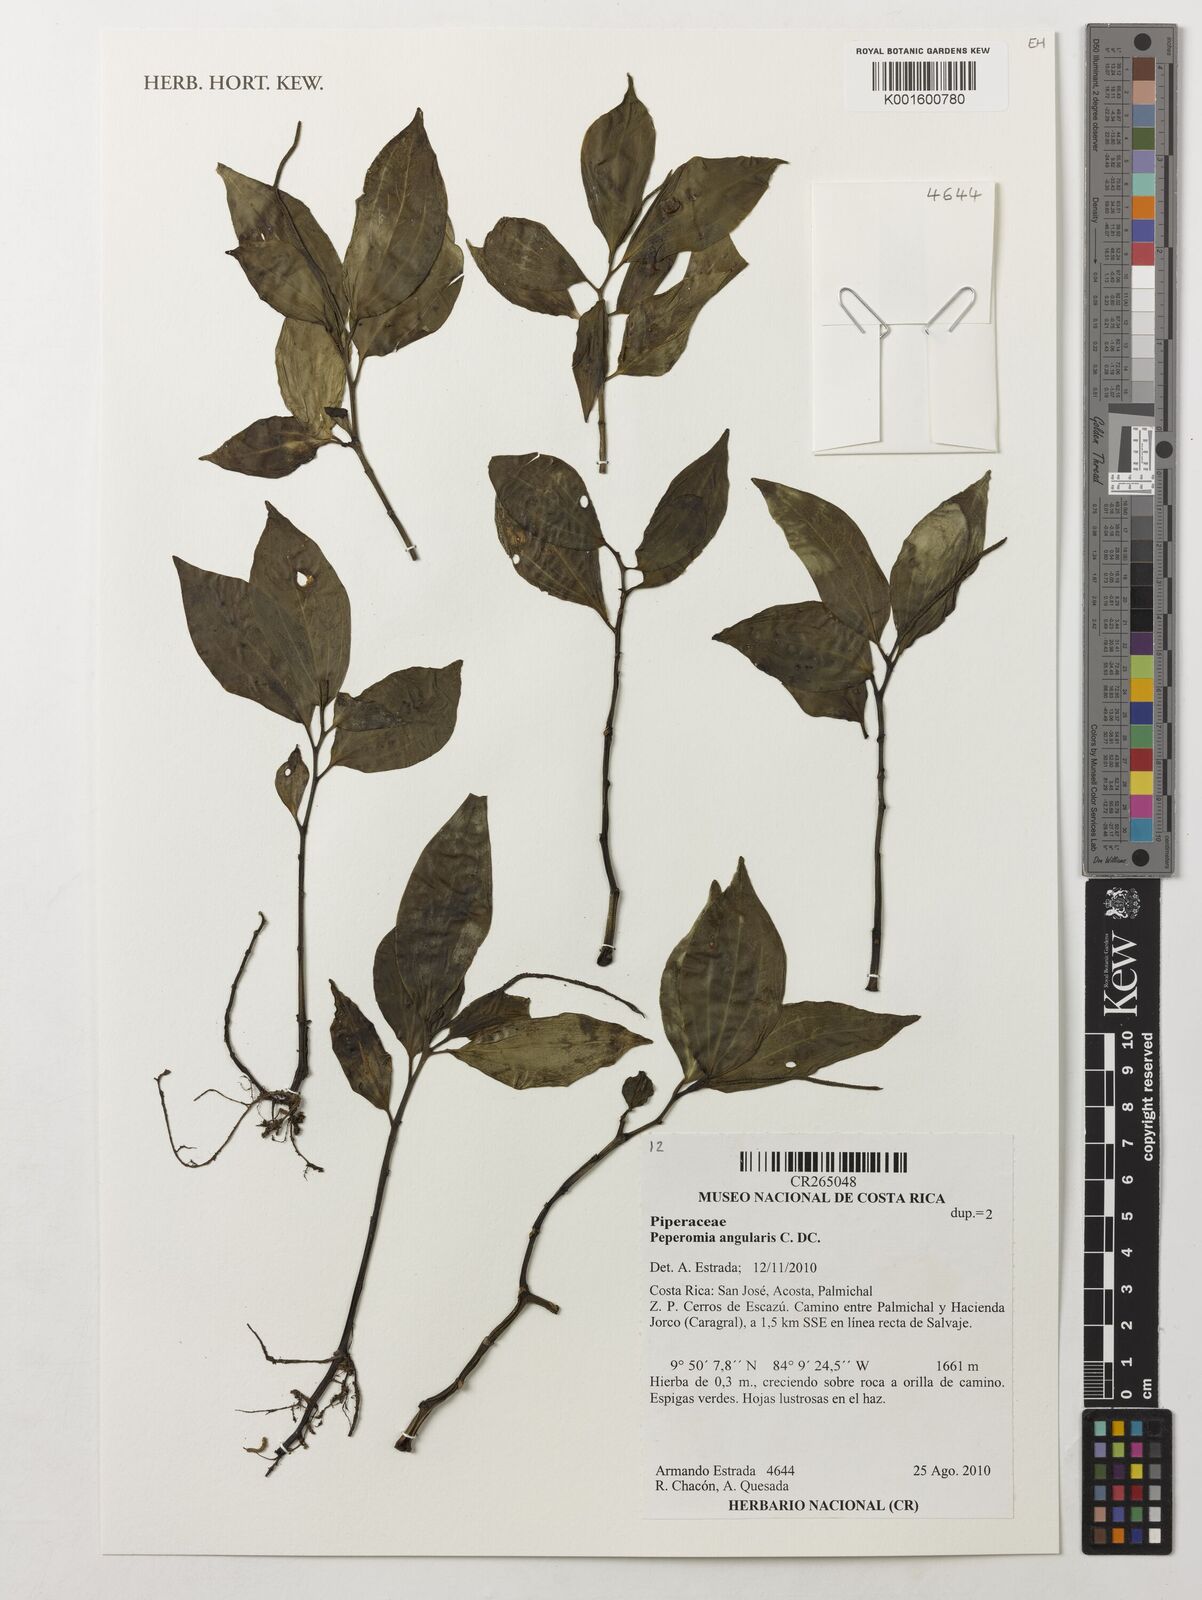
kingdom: Plantae
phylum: Tracheophyta
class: Magnoliopsida
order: Piperales
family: Piperaceae
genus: Peperomia
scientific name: Peperomia angularis
